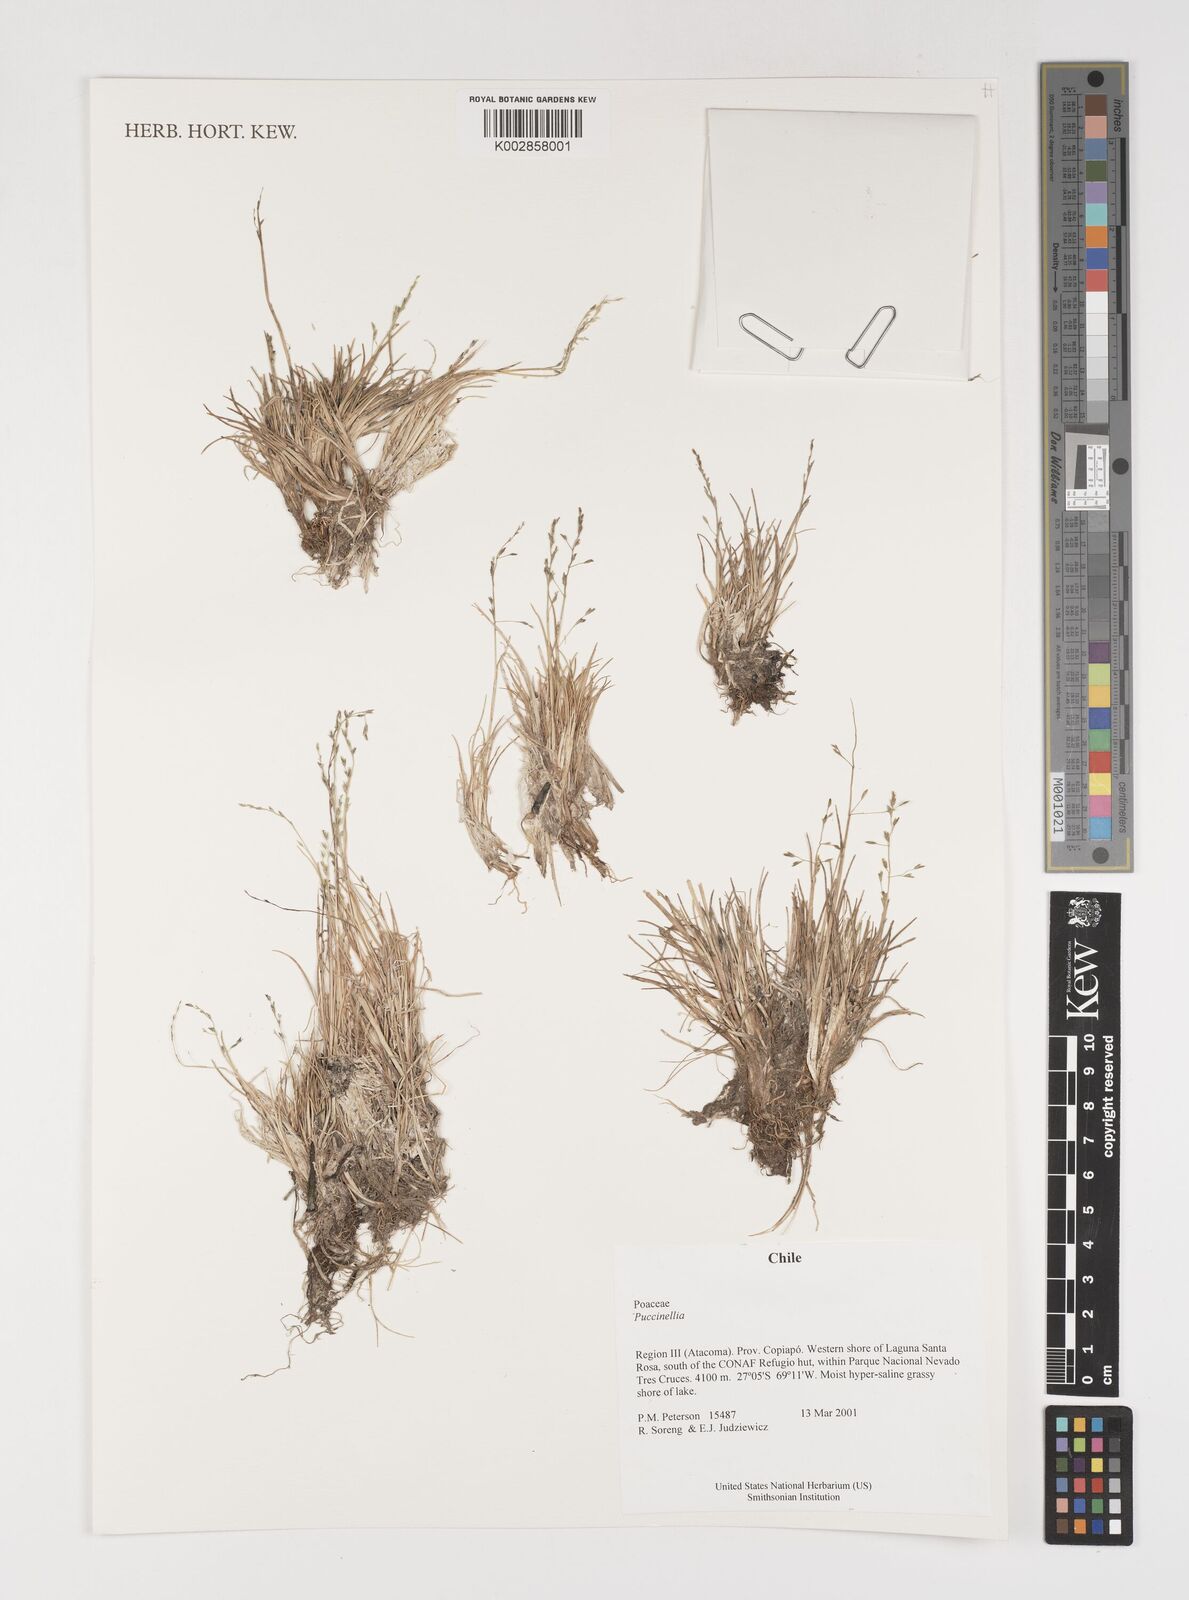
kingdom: Plantae
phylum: Tracheophyta
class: Liliopsida
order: Poales
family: Poaceae
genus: Puccinellia
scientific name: Puccinellia
